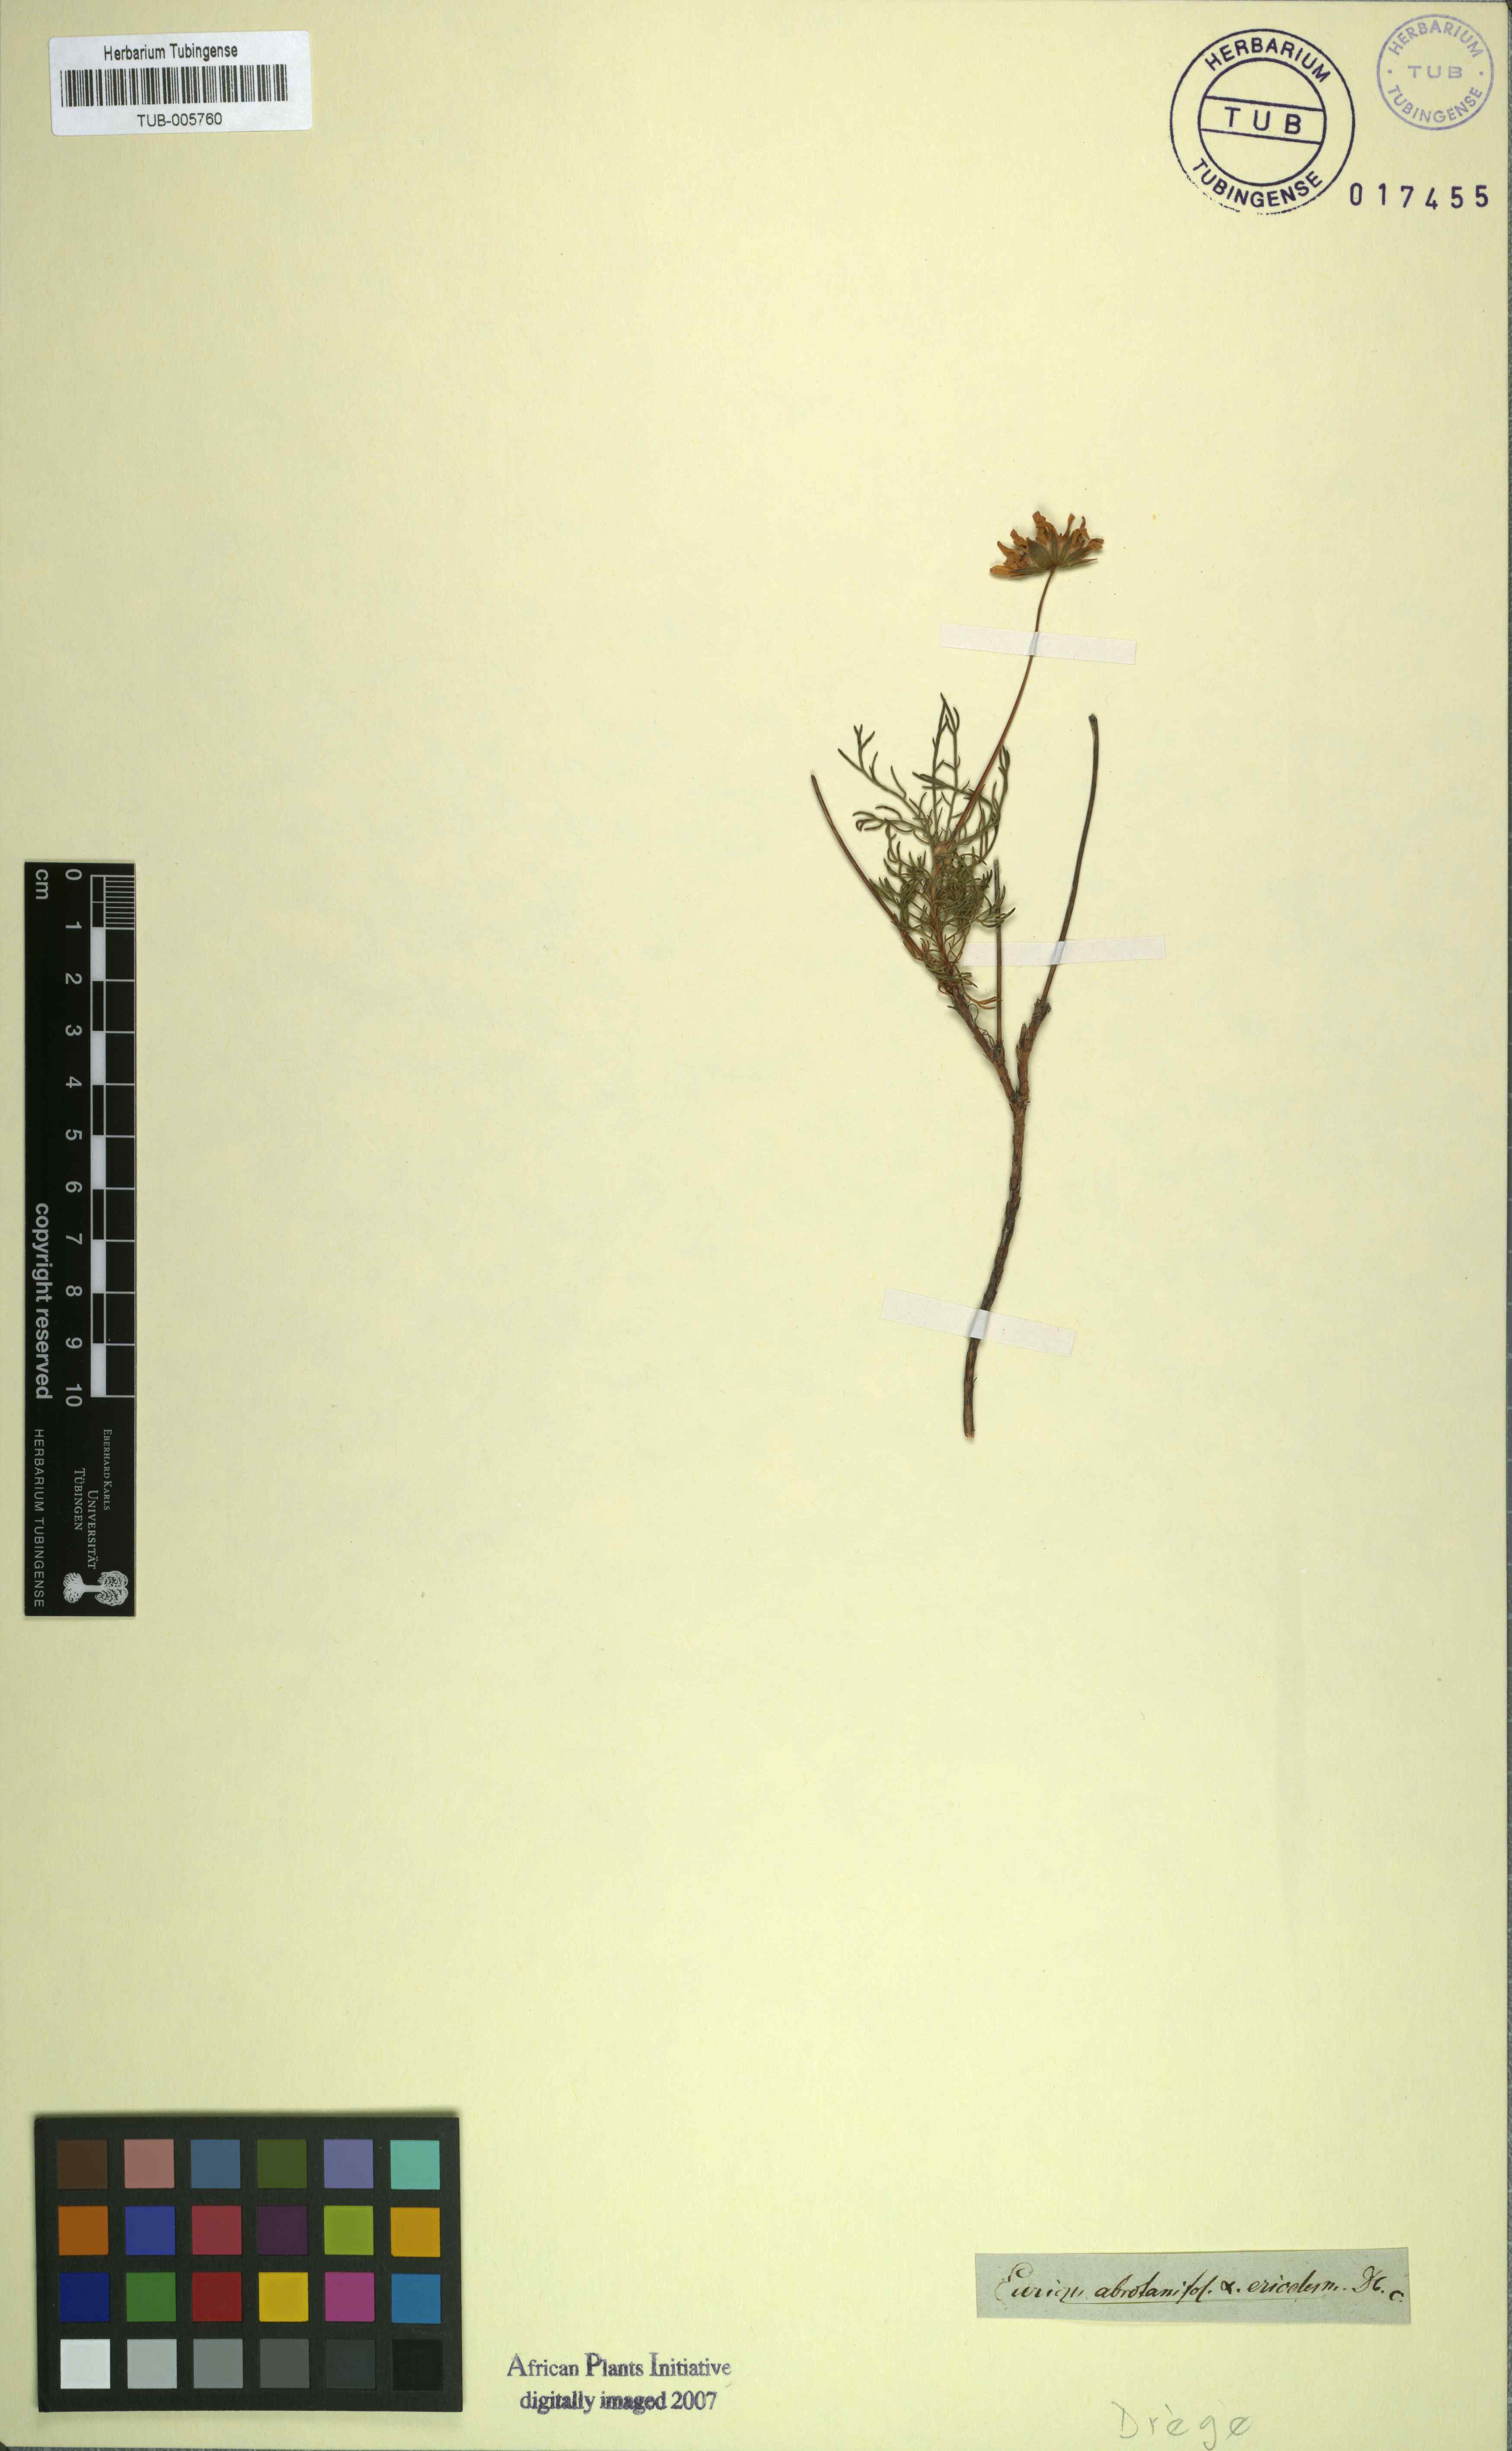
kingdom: Plantae
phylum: Tracheophyta
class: Magnoliopsida
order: Asterales
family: Asteraceae
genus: Euryops
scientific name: Euryops abrotanifolius
